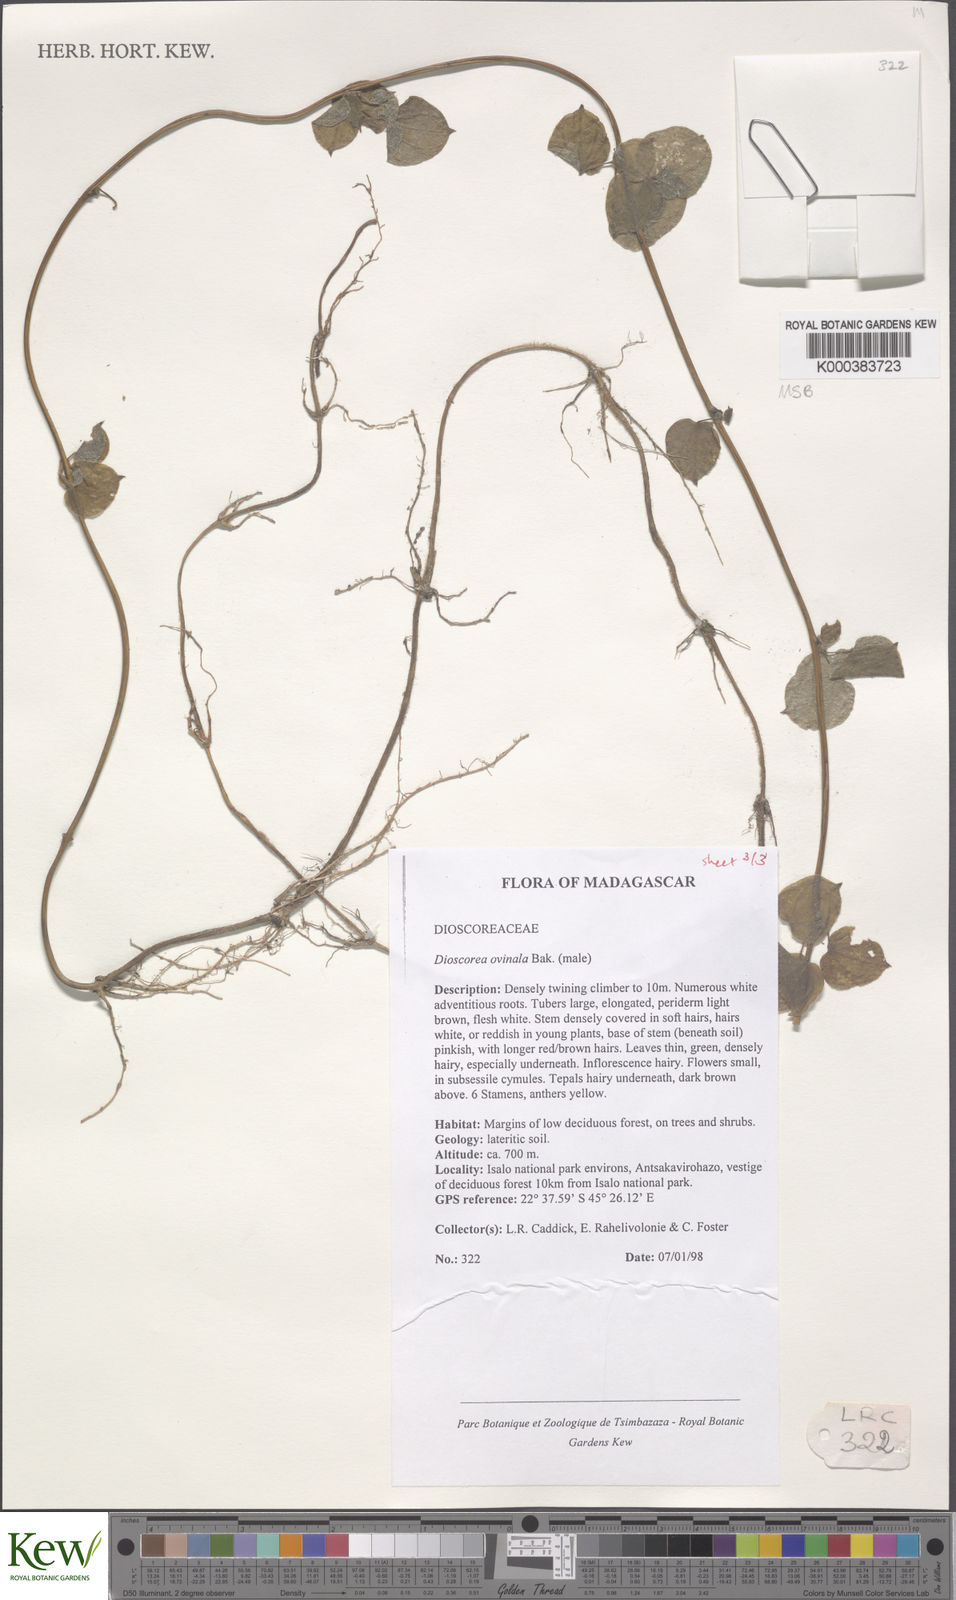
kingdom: Plantae
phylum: Tracheophyta
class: Liliopsida
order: Dioscoreales
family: Dioscoreaceae
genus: Dioscorea
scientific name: Dioscorea ovinala
